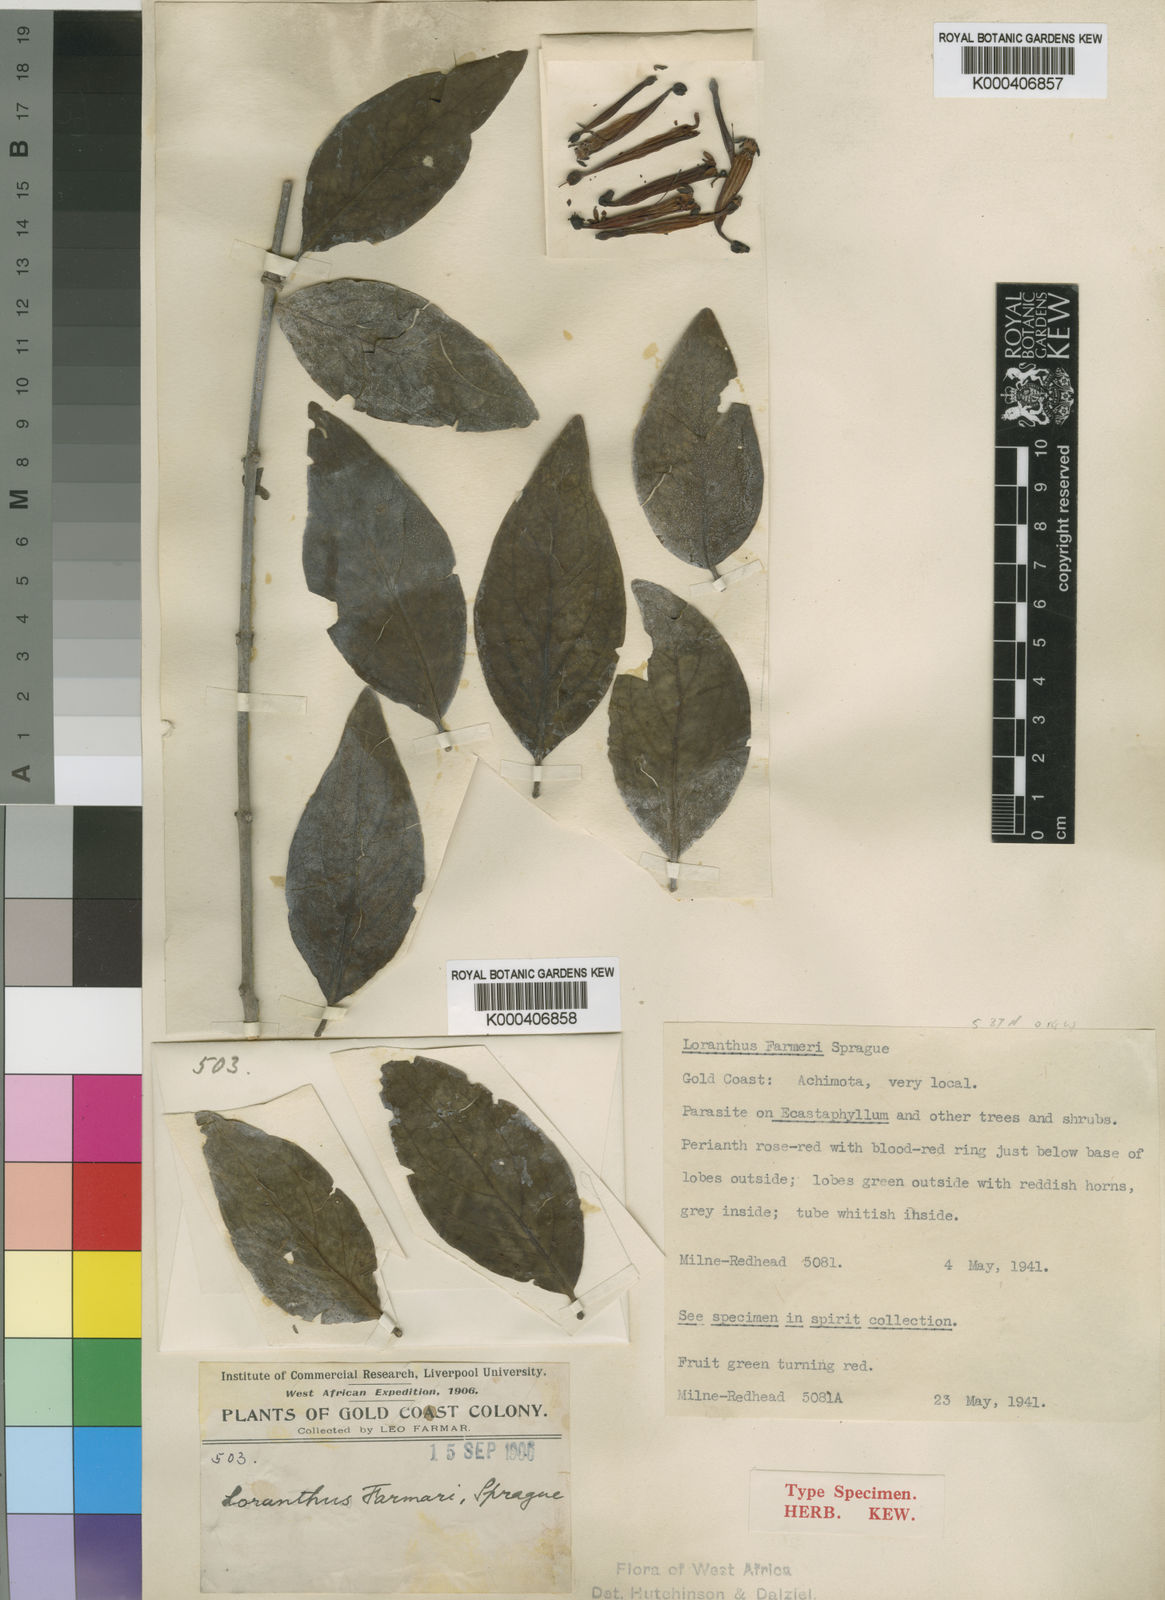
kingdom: Plantae
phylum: Tracheophyta
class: Magnoliopsida
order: Santalales
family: Loranthaceae
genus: Tapinanthus
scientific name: Tapinanthus farmari
